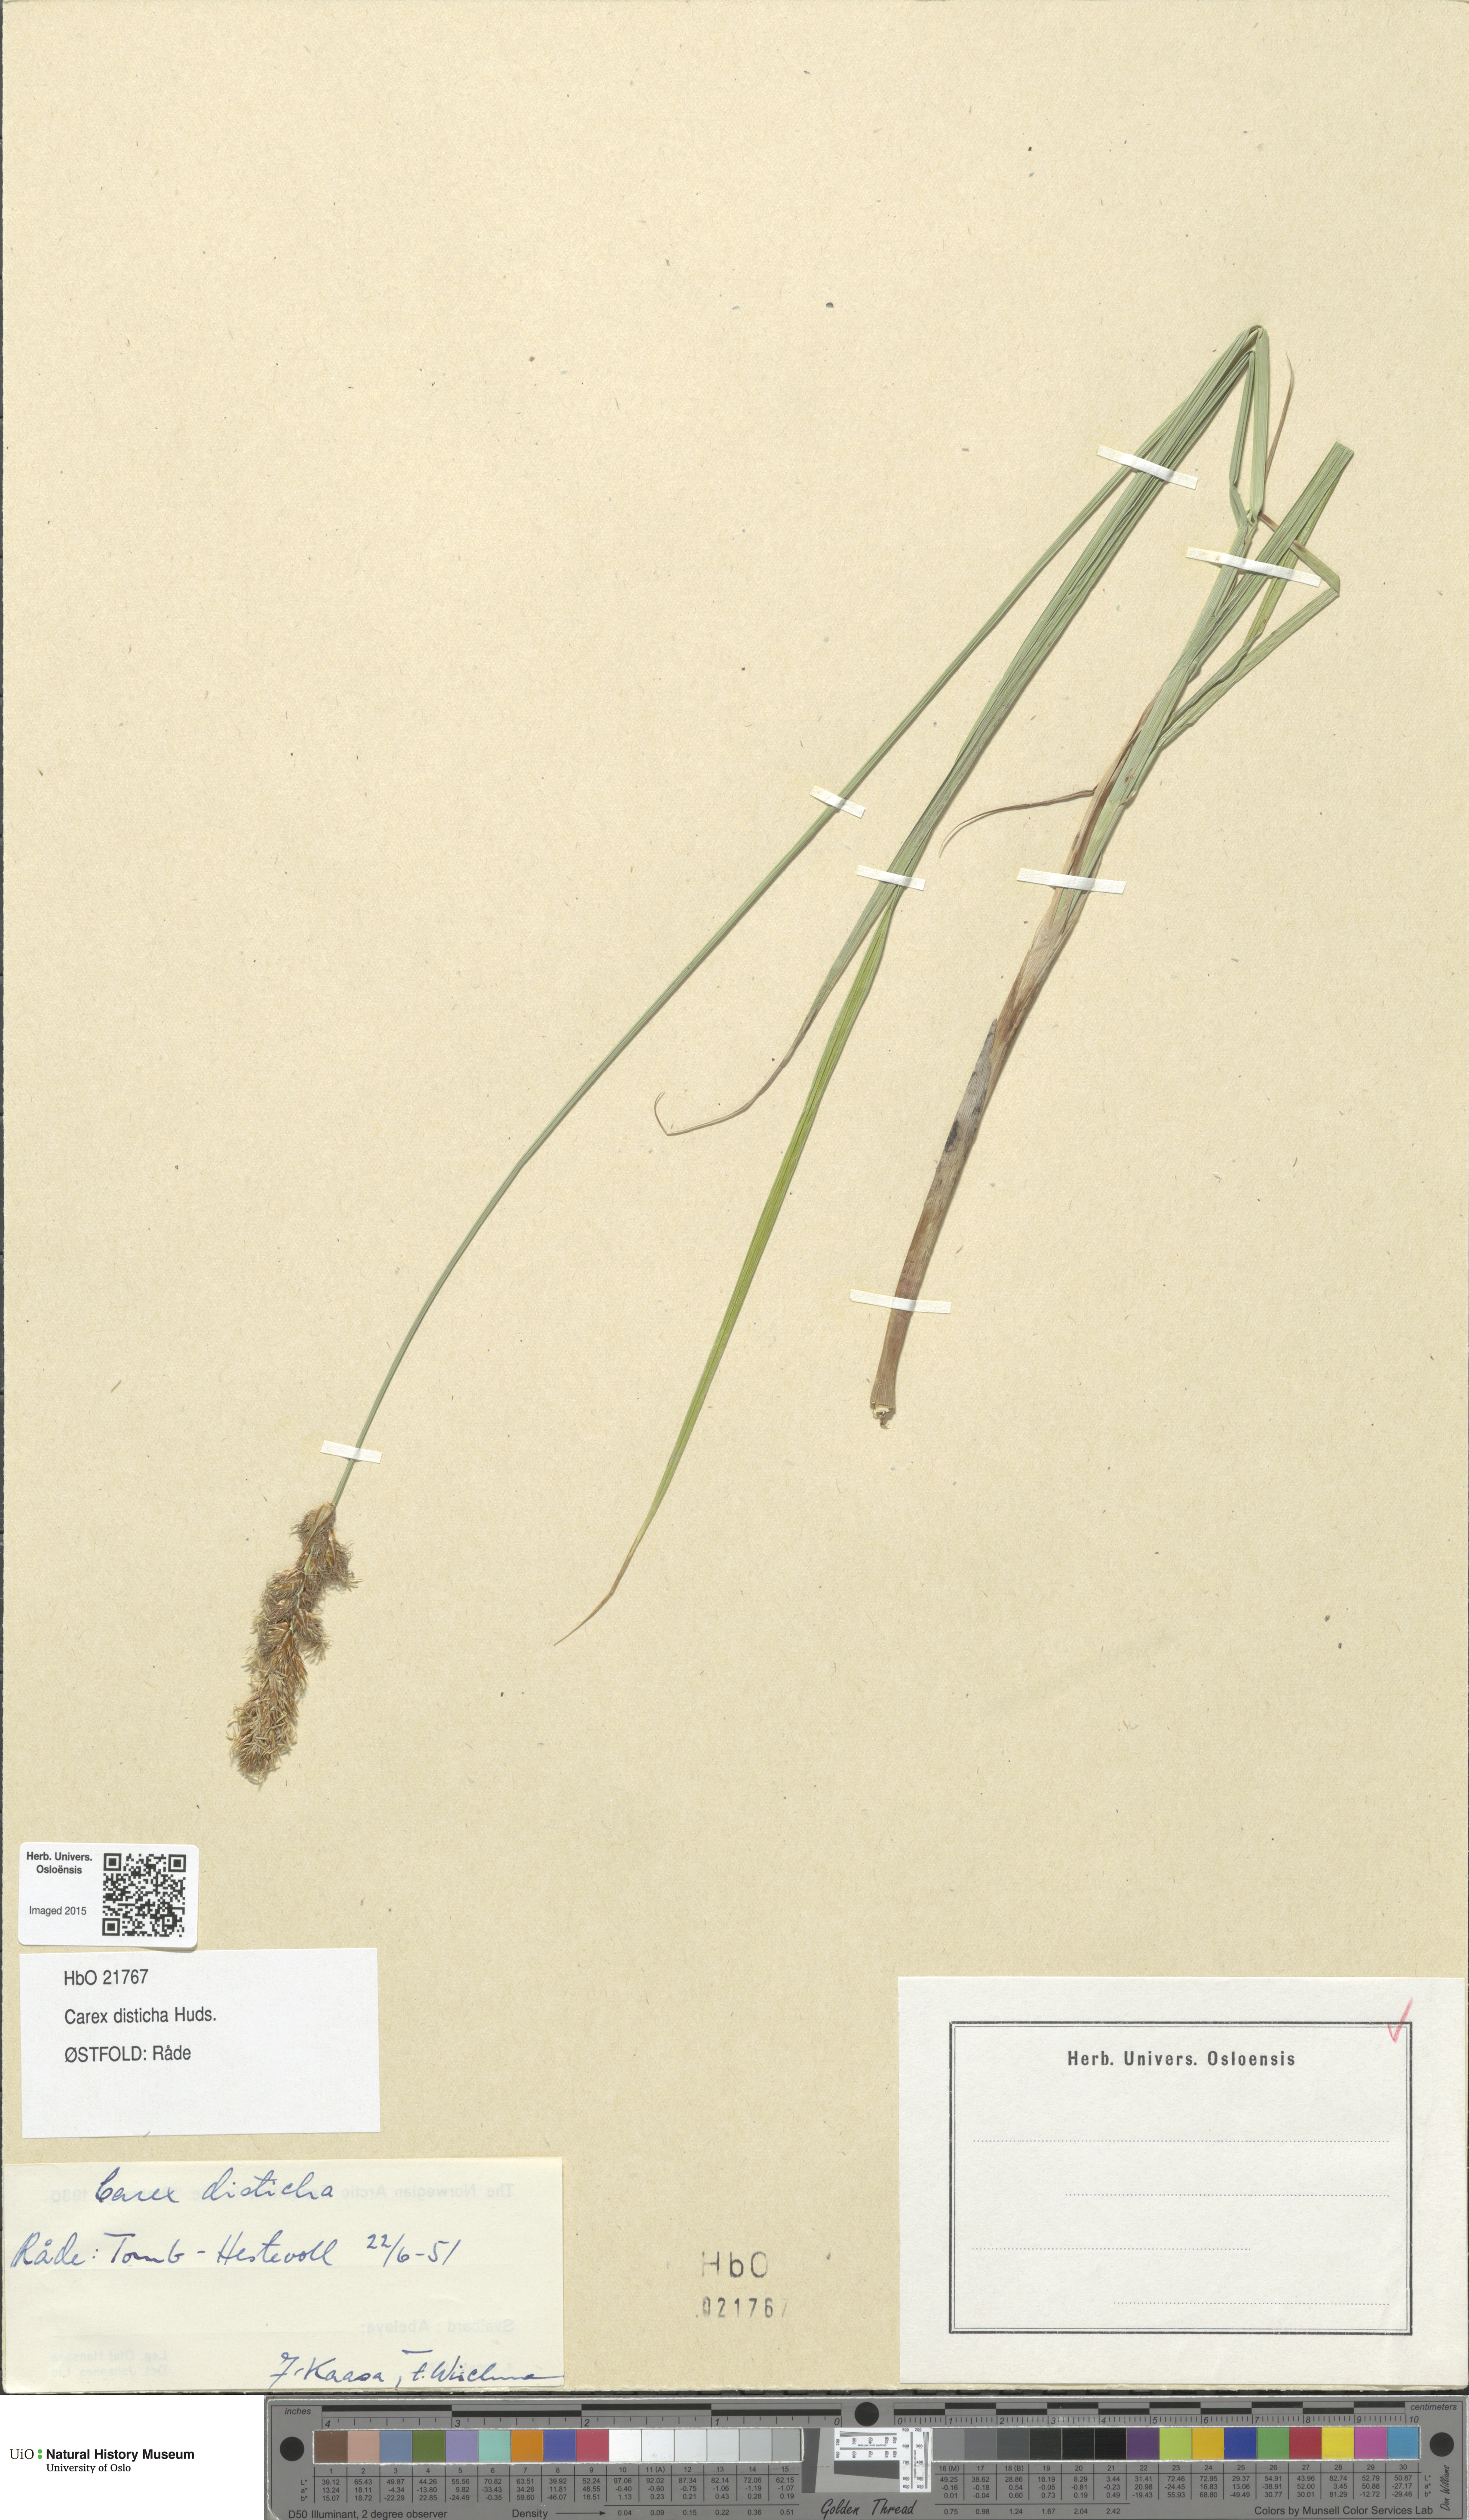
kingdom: Plantae
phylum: Tracheophyta
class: Liliopsida
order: Poales
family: Cyperaceae
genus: Carex
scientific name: Carex disticha
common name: Brown sedge
